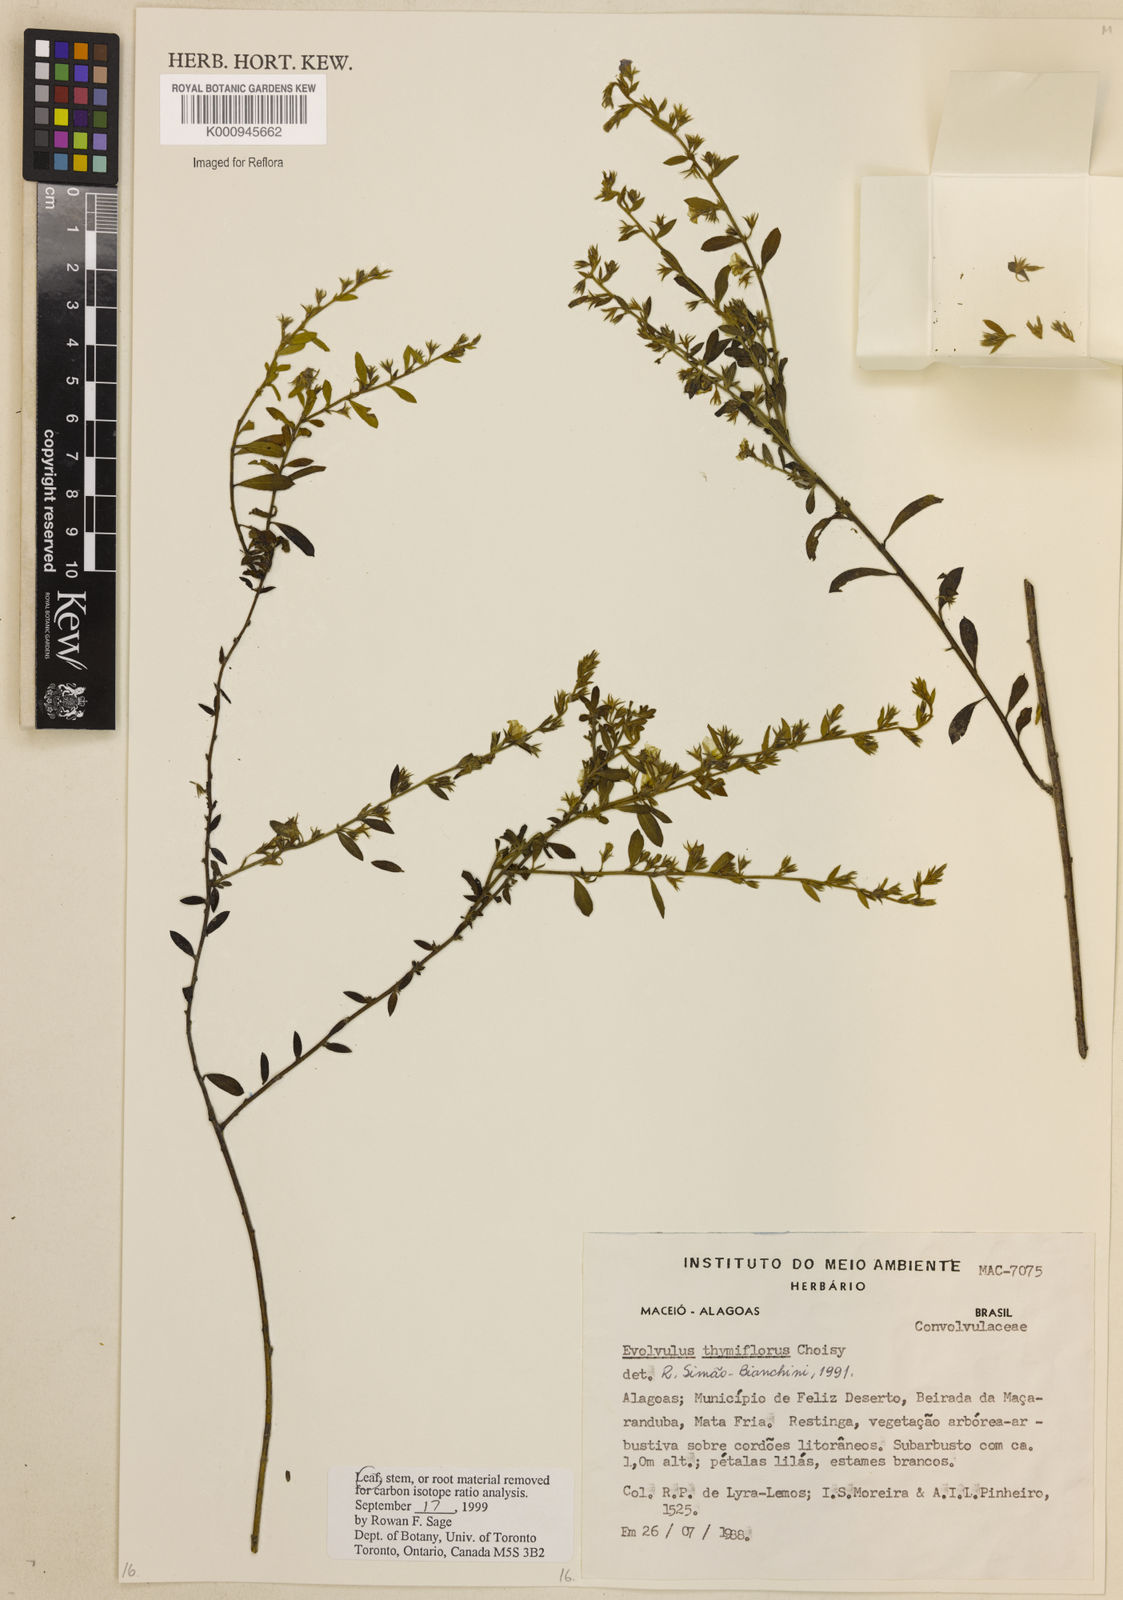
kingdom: Plantae
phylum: Tracheophyta
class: Magnoliopsida
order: Solanales
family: Convolvulaceae
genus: Evolvulus
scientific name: Evolvulus thymiflorus
